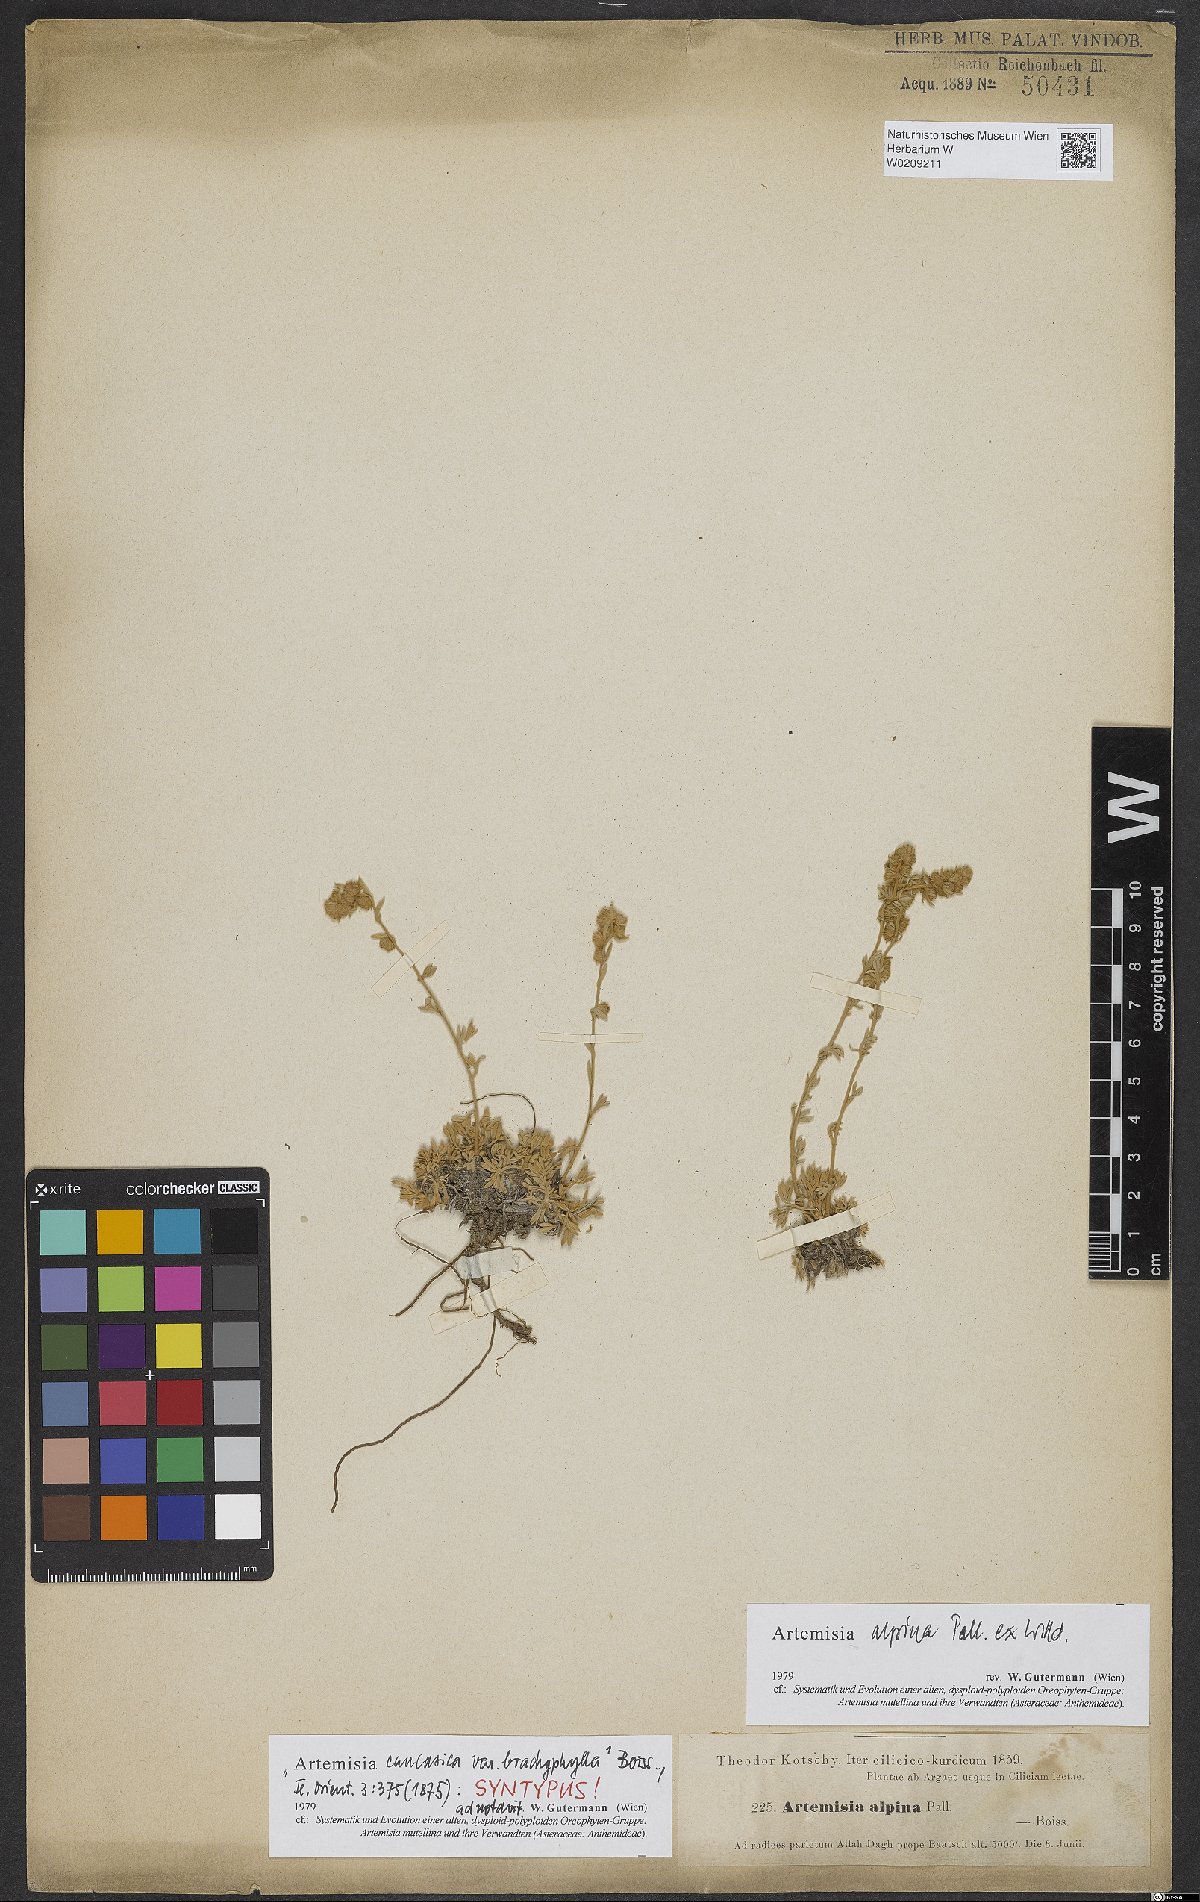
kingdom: Plantae
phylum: Tracheophyta
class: Magnoliopsida
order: Asterales
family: Asteraceae
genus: Artemisia
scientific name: Artemisia alpina
